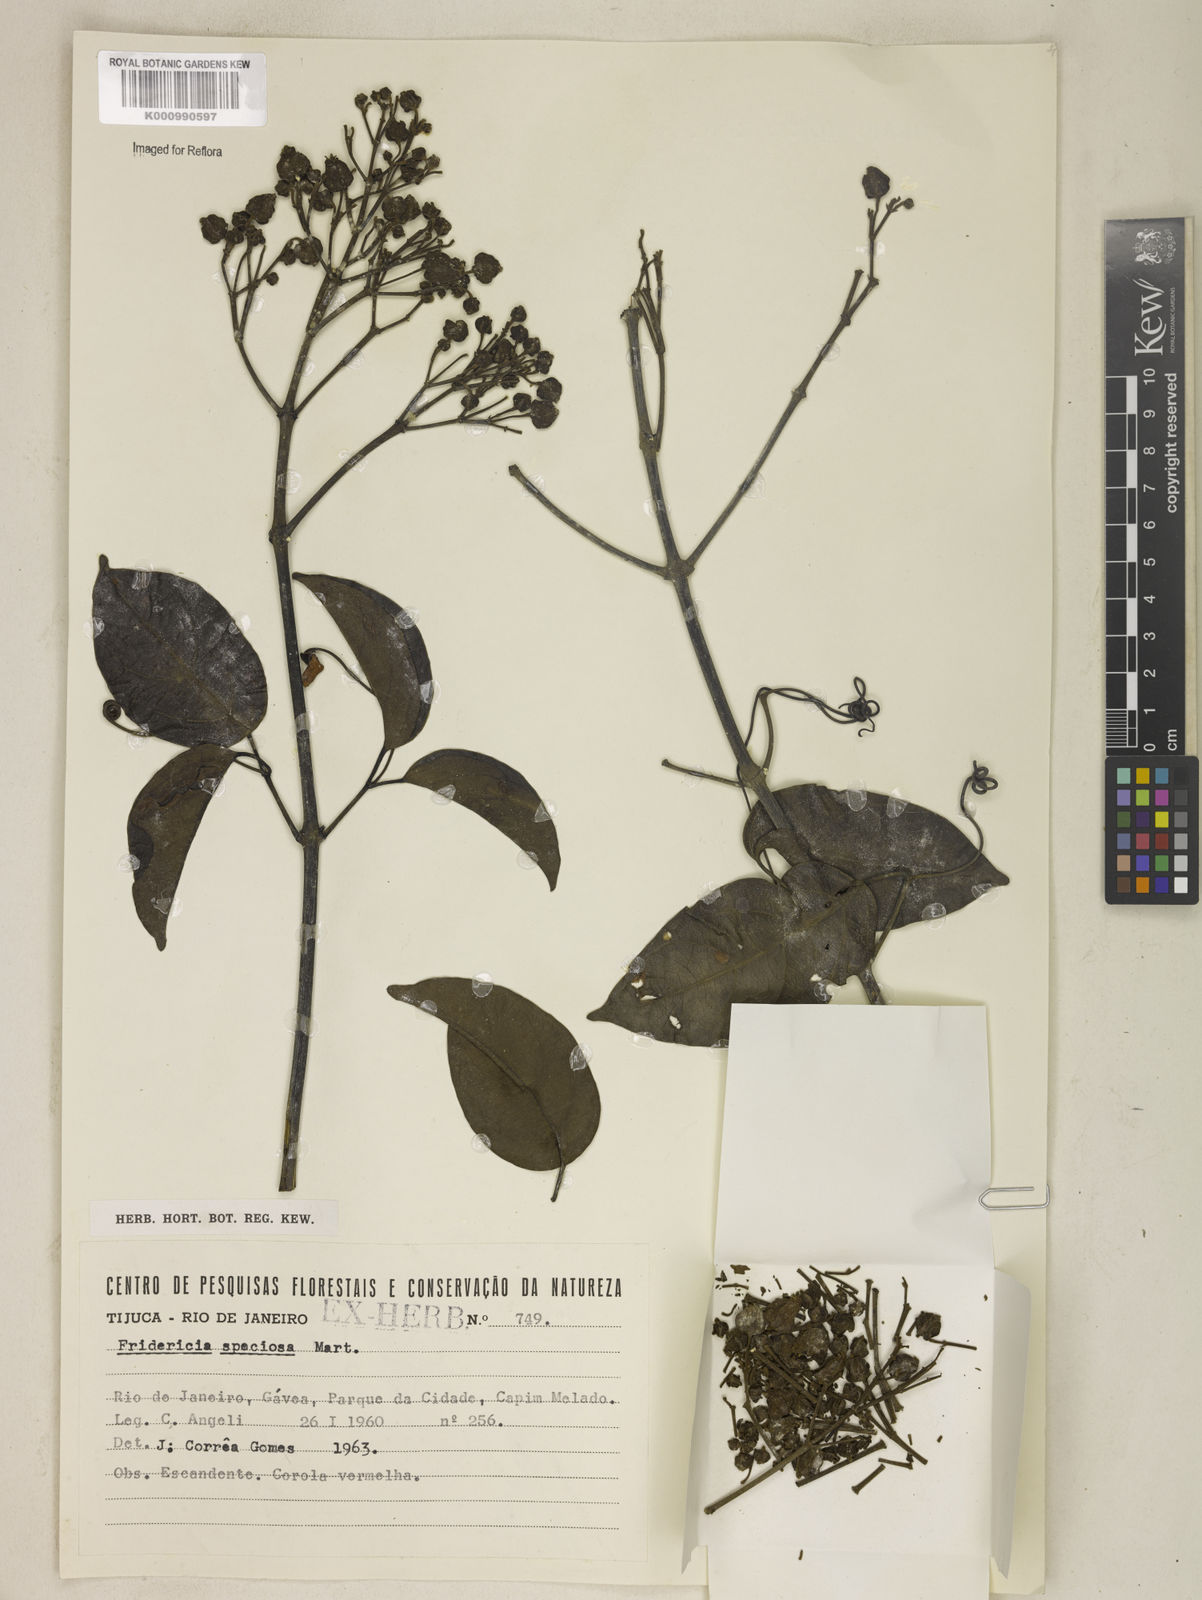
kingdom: Plantae
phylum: Tracheophyta
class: Magnoliopsida
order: Lamiales
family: Bignoniaceae
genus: Fridericia
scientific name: Fridericia speciosa
